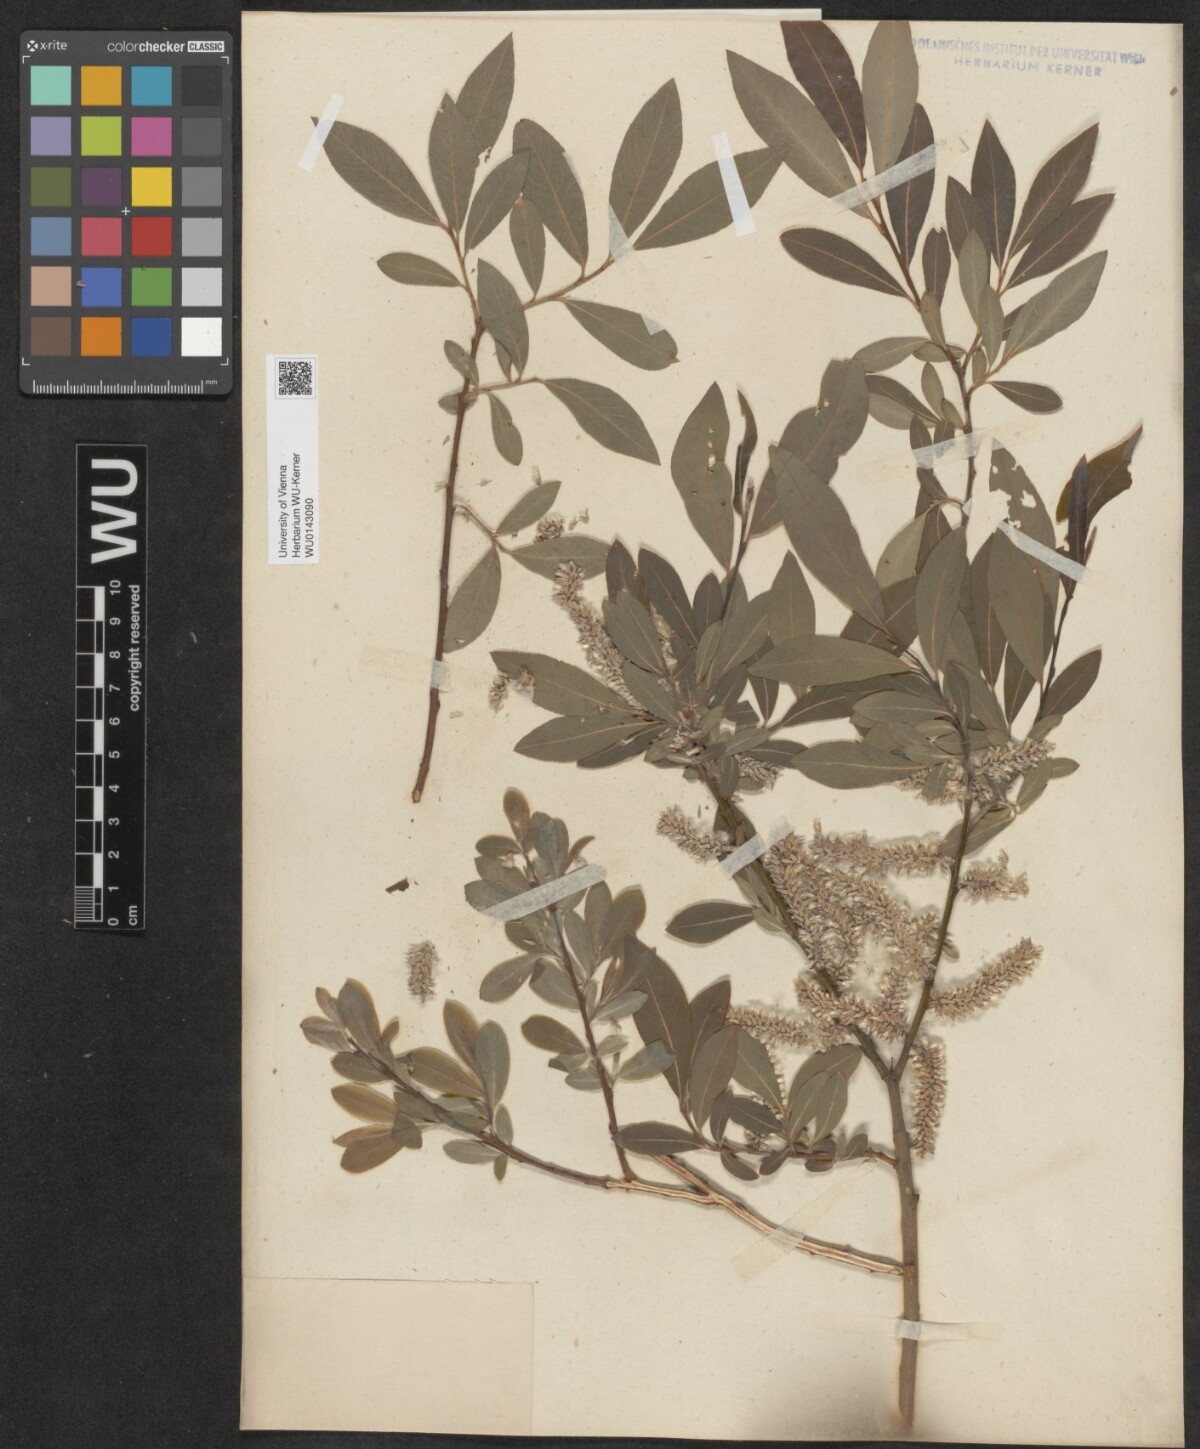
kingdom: Plantae
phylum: Tracheophyta
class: Magnoliopsida
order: Malpighiales
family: Salicaceae
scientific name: Salicaceae
